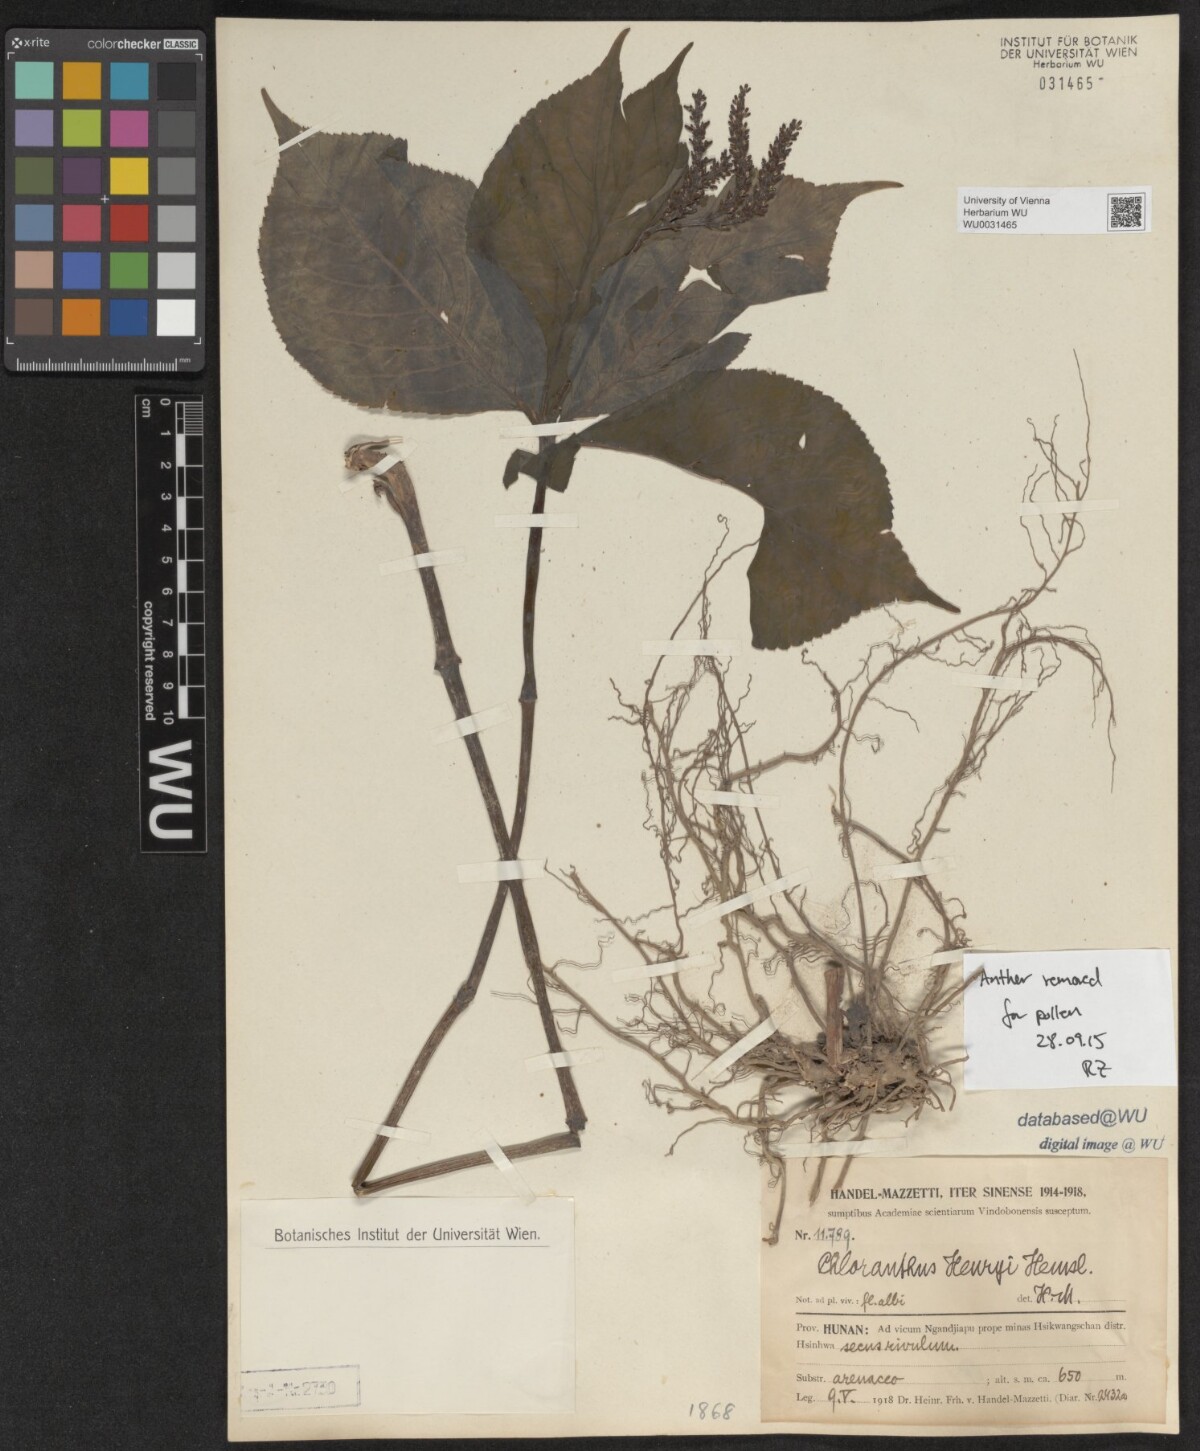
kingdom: Plantae
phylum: Tracheophyta
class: Magnoliopsida
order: Chloranthales
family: Chloranthaceae
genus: Chloranthus
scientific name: Chloranthus henryi
